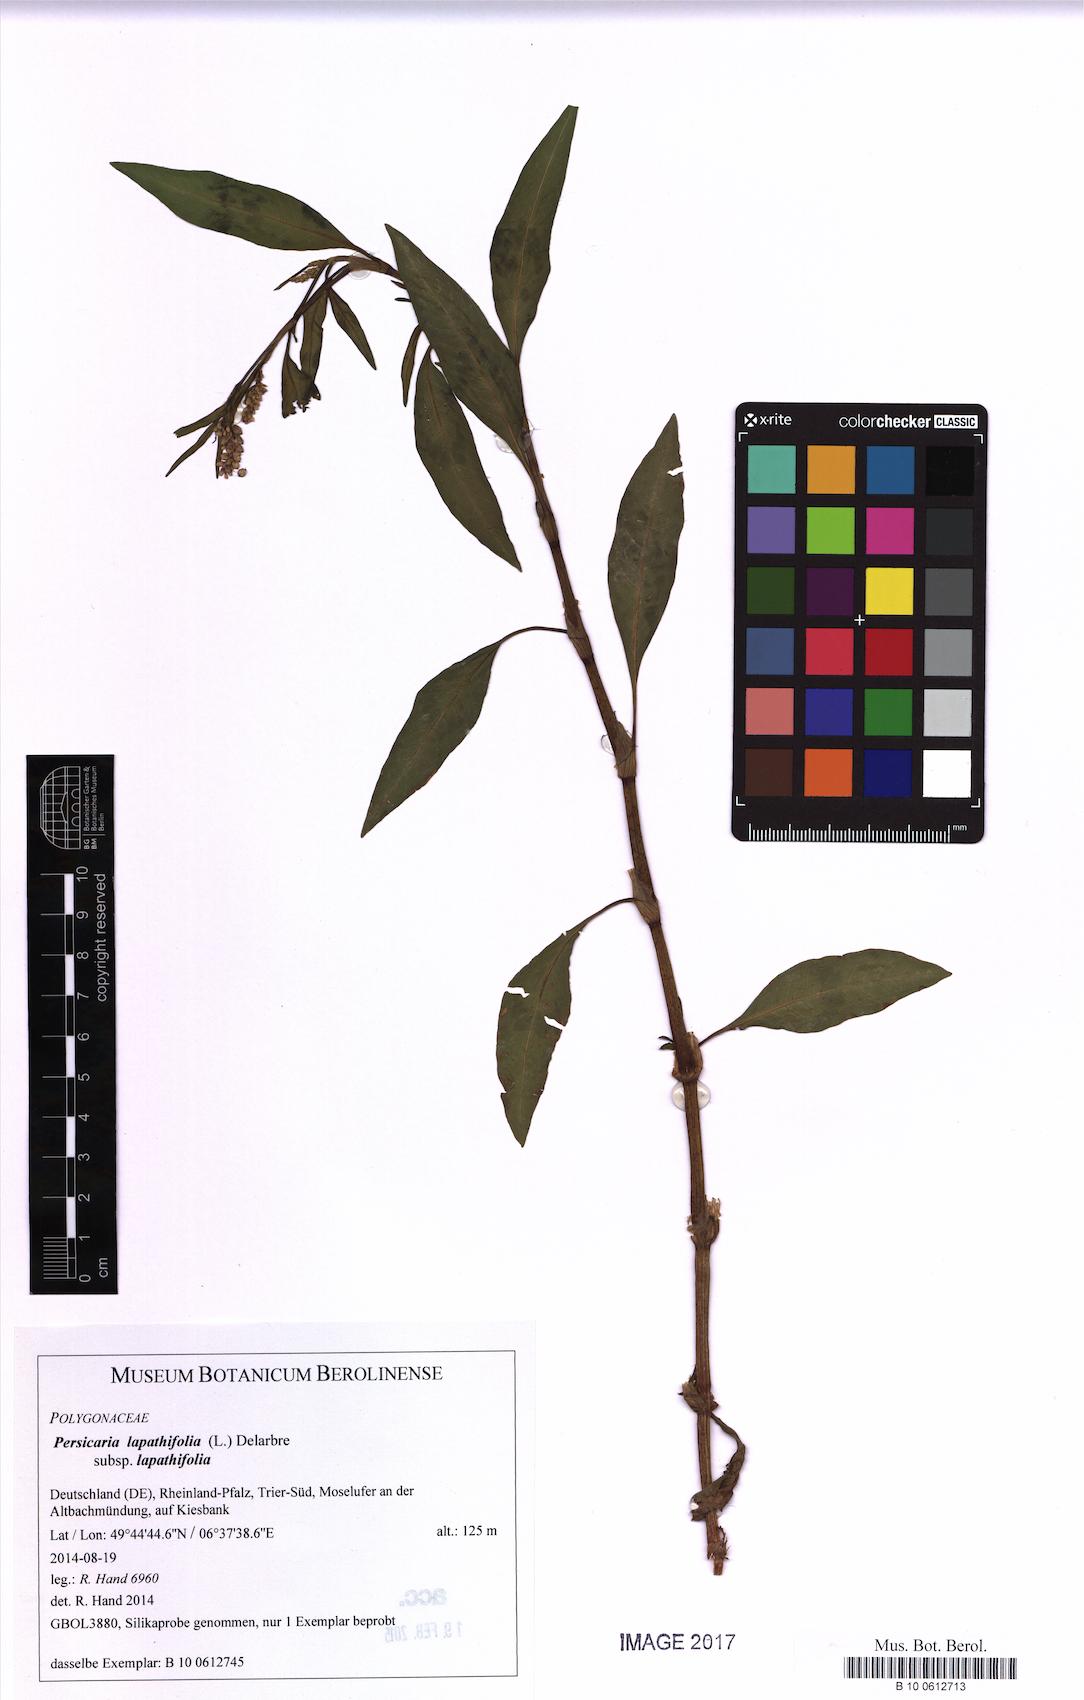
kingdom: Plantae
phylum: Tracheophyta
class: Magnoliopsida
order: Caryophyllales
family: Polygonaceae
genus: Persicaria
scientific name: Persicaria lapathifolia
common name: Curlytop knotweed
